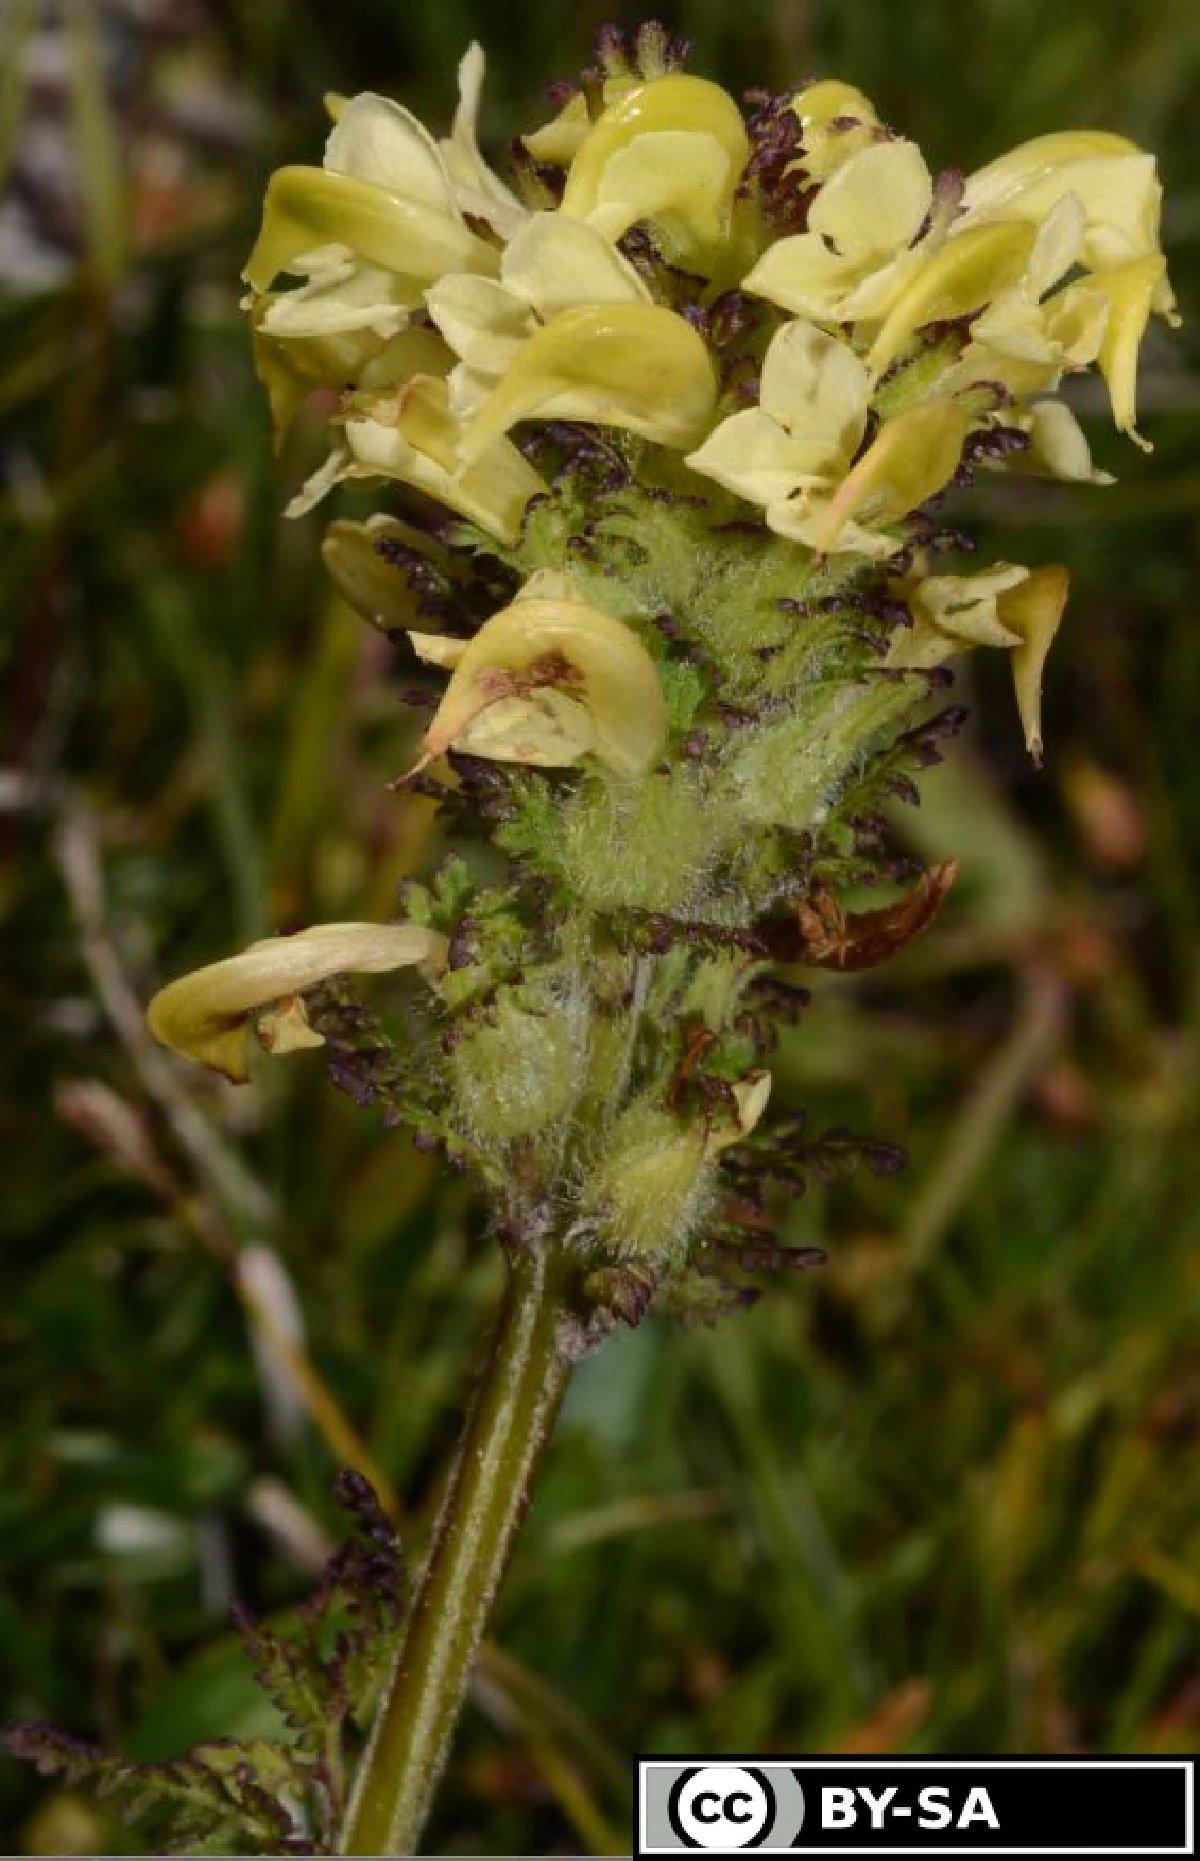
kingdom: Plantae
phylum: Tracheophyta
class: Magnoliopsida
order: Lamiales
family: Orobanchaceae
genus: Pedicularis
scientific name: Pedicularis julica
